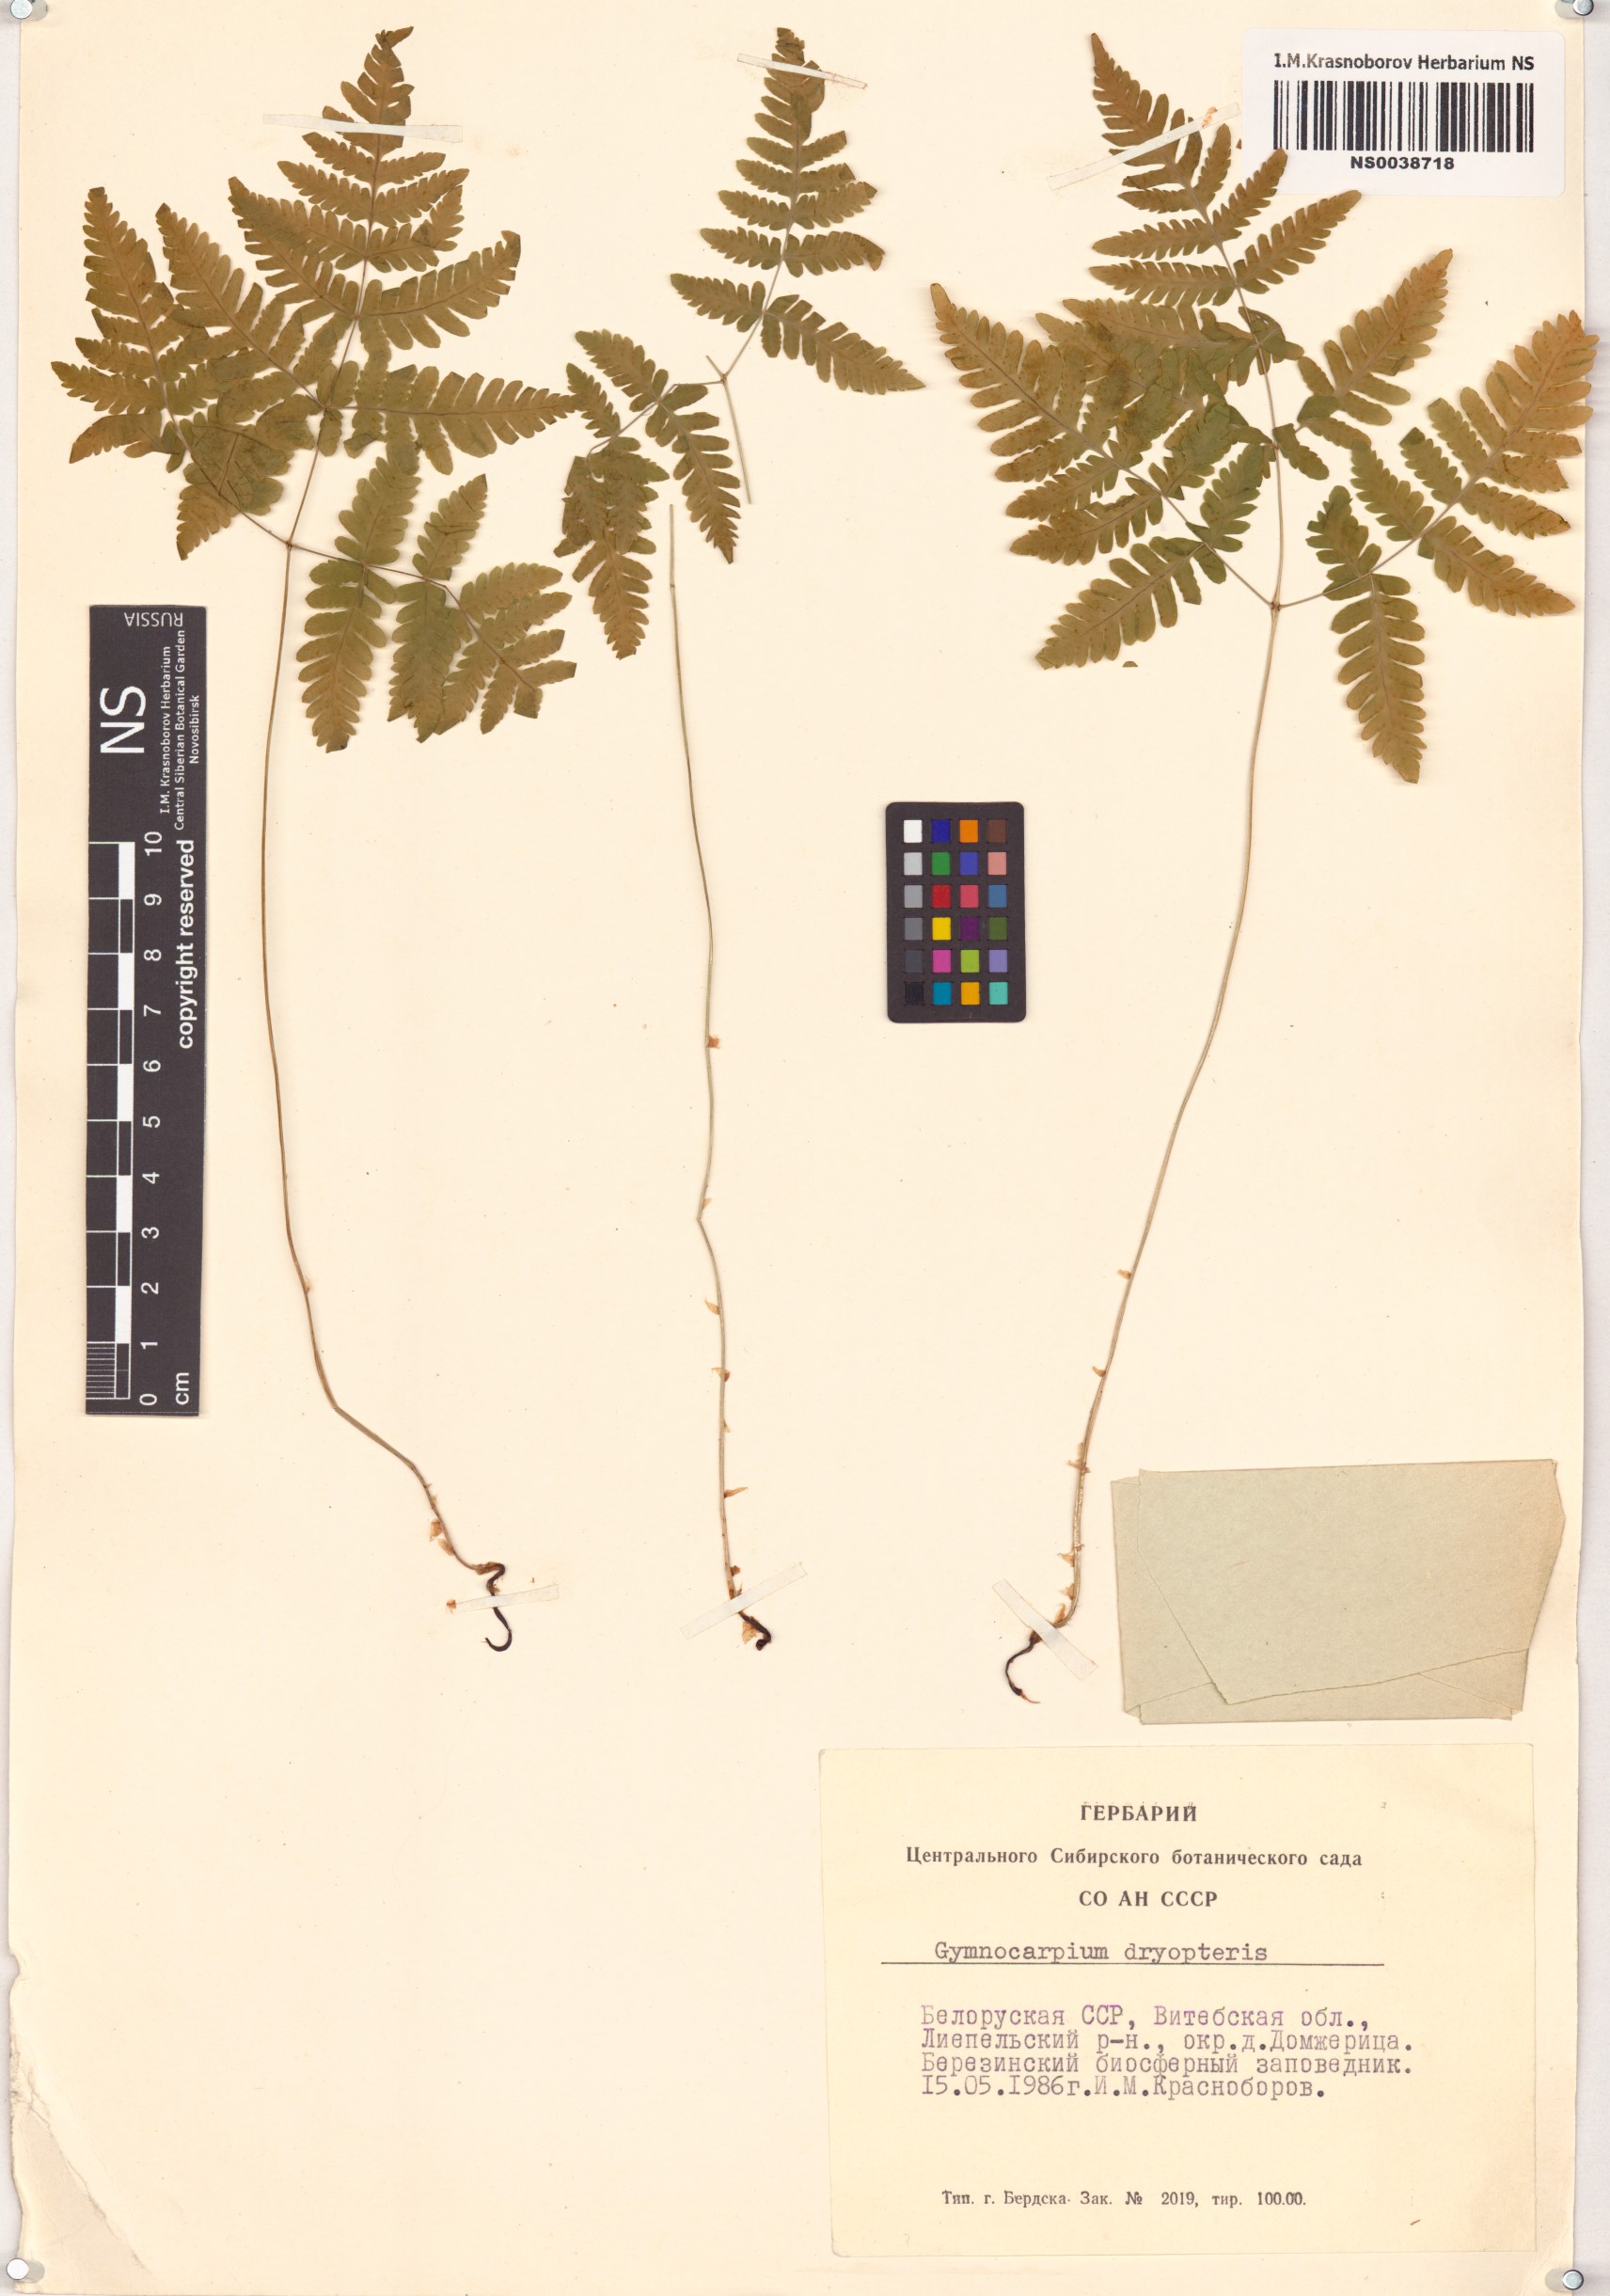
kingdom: Plantae
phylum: Tracheophyta
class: Polypodiopsida
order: Polypodiales
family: Cystopteridaceae
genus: Gymnocarpium
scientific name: Gymnocarpium dryopteris
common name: Oak fern
